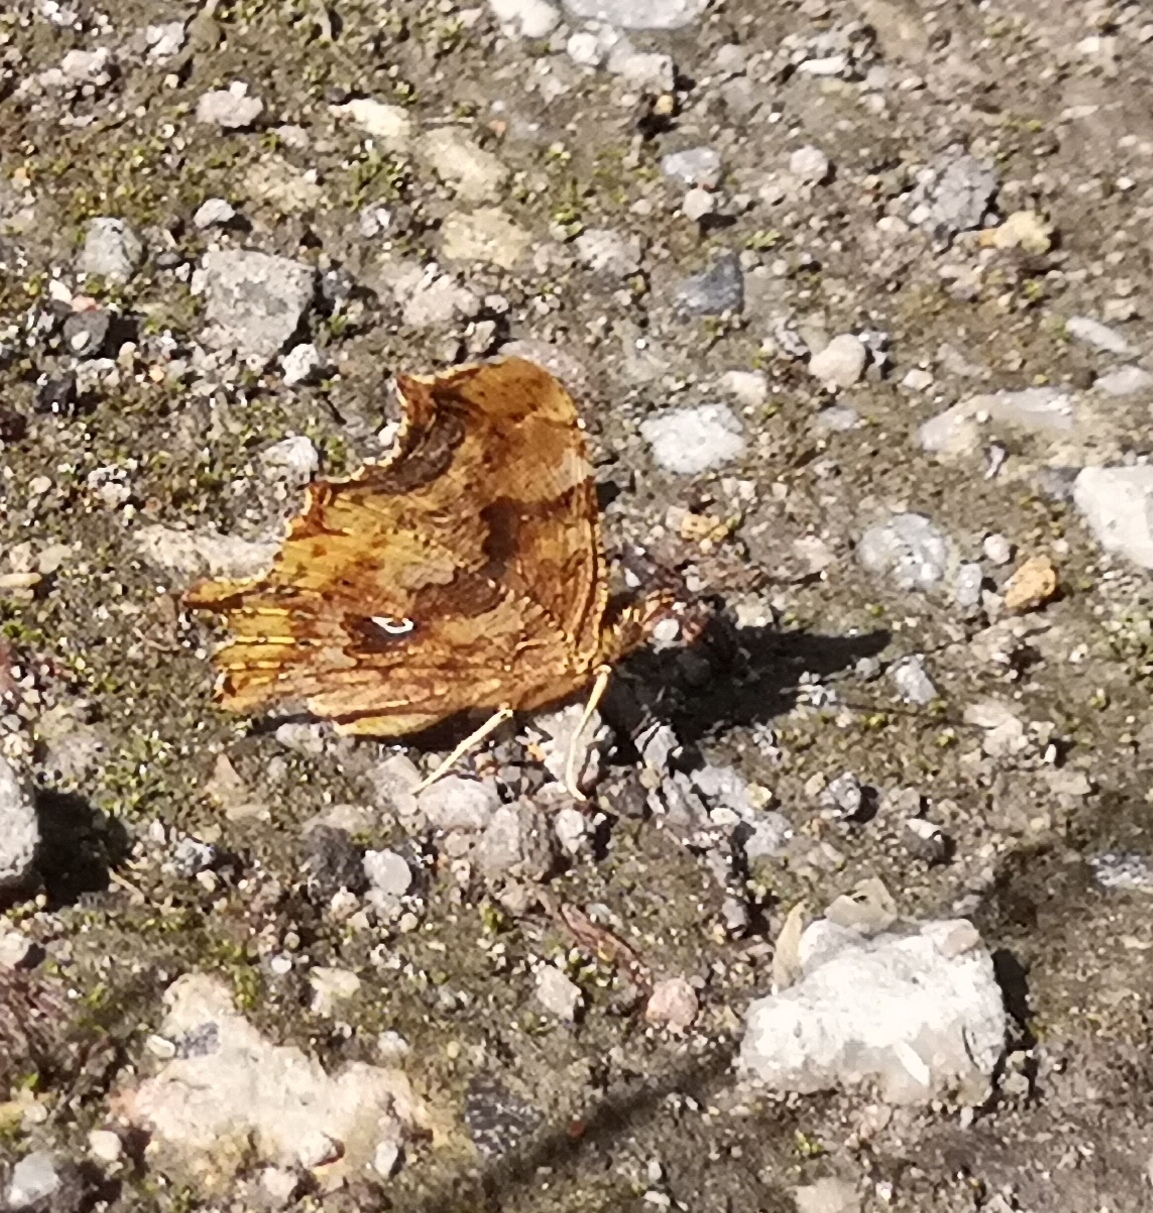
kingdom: Animalia
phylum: Arthropoda
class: Insecta
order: Lepidoptera
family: Nymphalidae
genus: Polygonia
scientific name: Polygonia c-album
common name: Det hvide C
